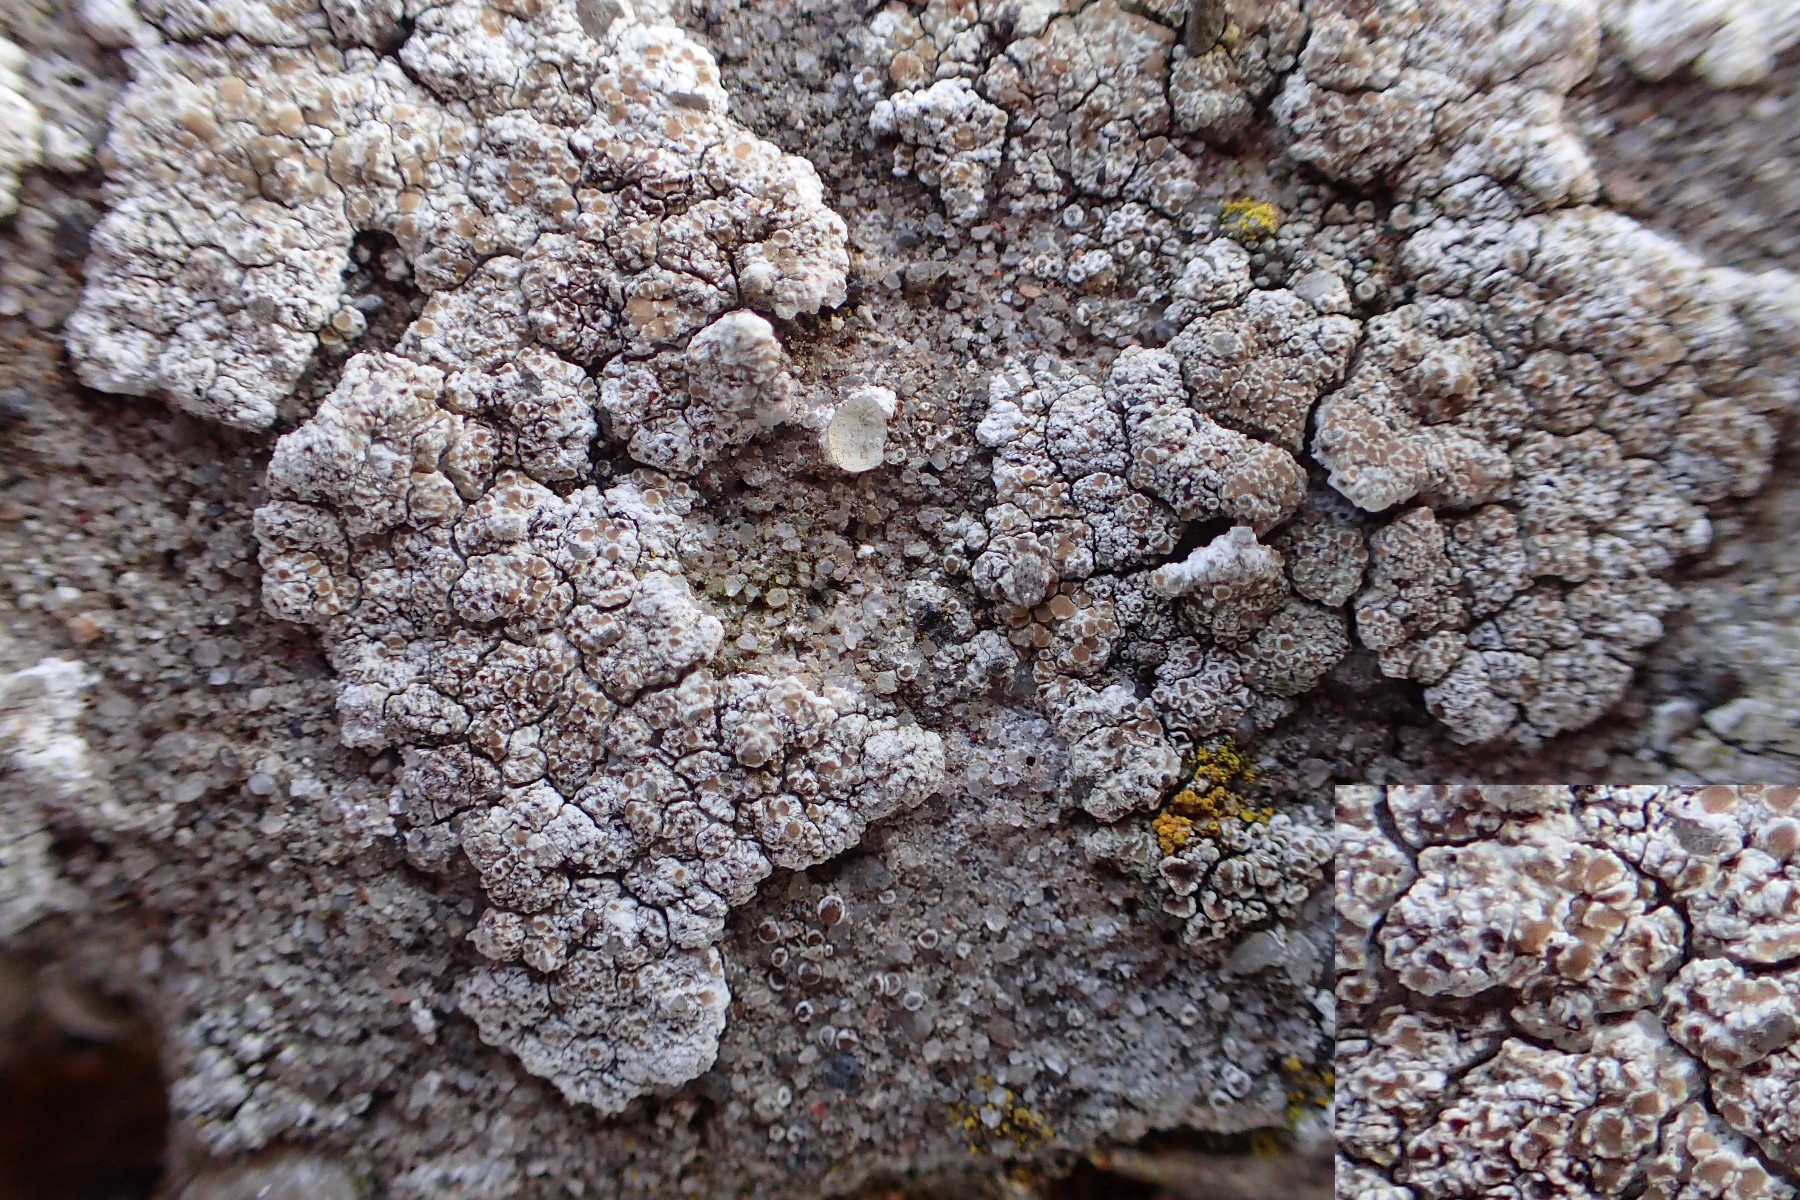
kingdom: Fungi
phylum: Ascomycota
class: Lecanoromycetes
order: Lecanorales
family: Lecanoraceae
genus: Polyozosia
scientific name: Polyozosia albescens
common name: cement-kantskivelav
